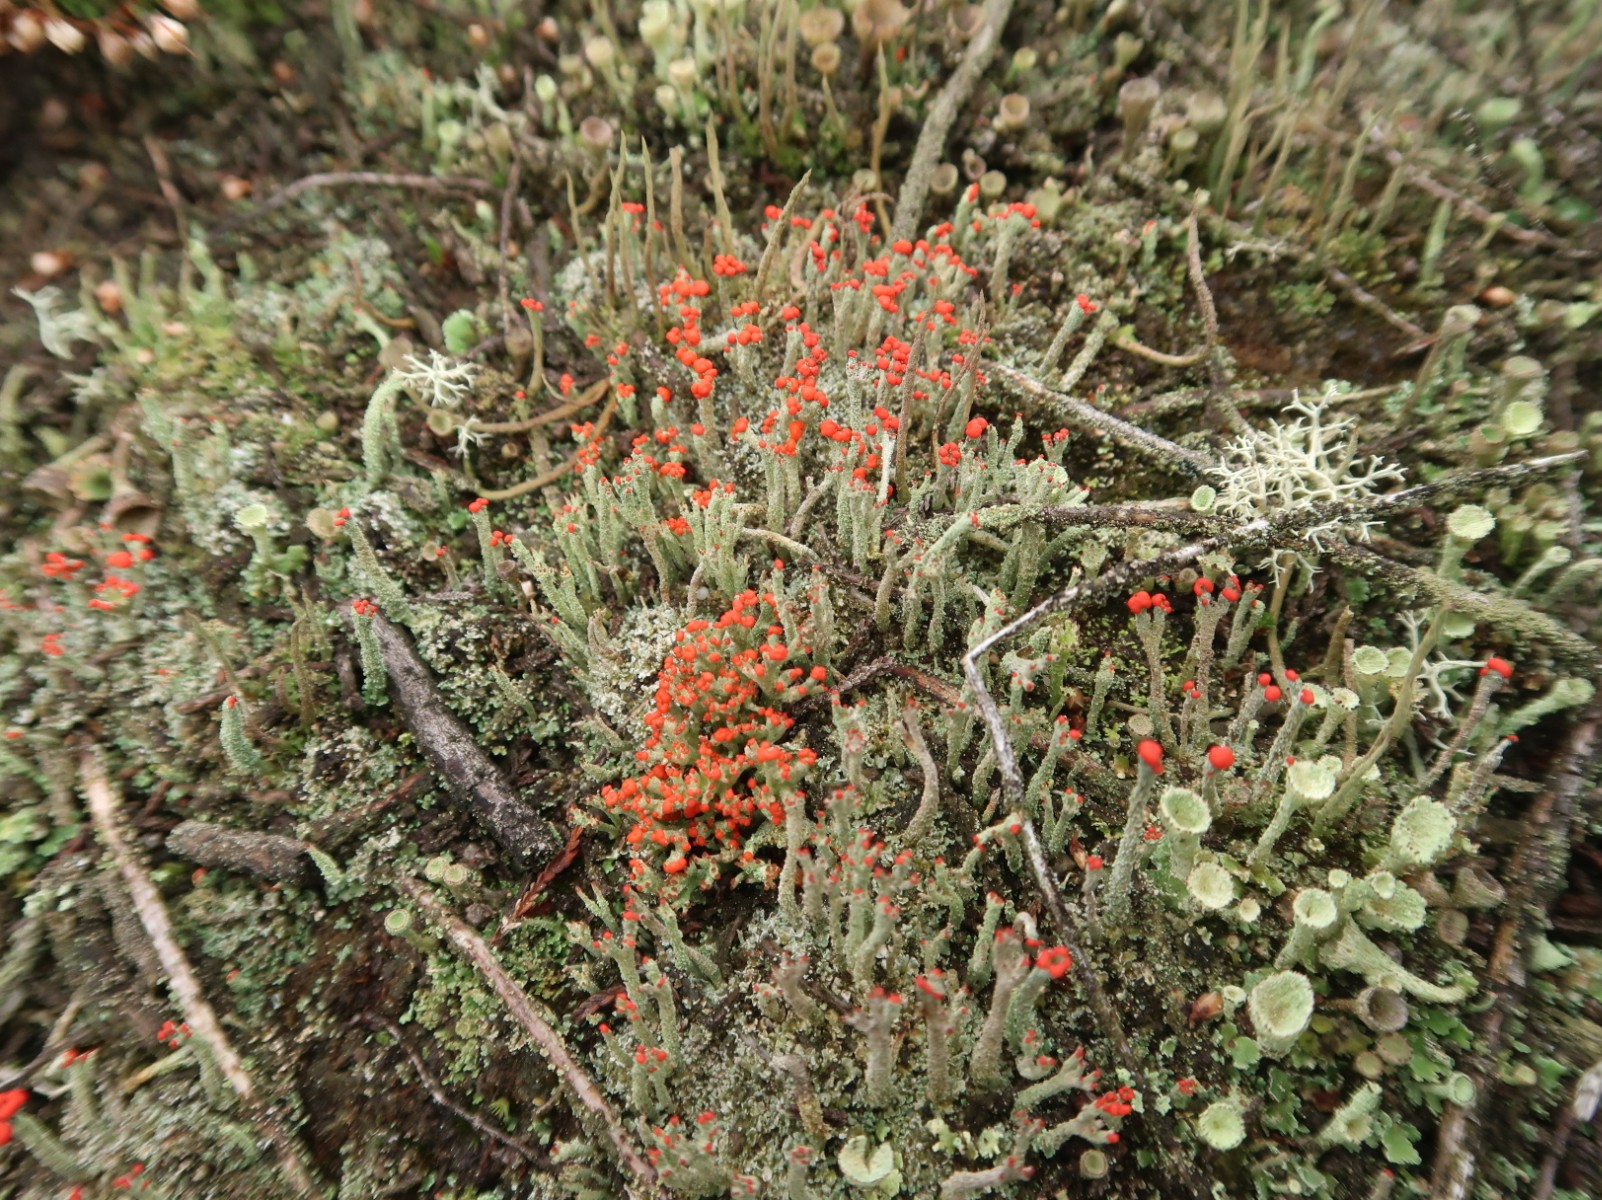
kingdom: Fungi
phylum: Ascomycota
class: Lecanoromycetes
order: Lecanorales
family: Cladoniaceae
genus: Cladonia
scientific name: Cladonia floerkeana
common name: lakrød bægerlav
